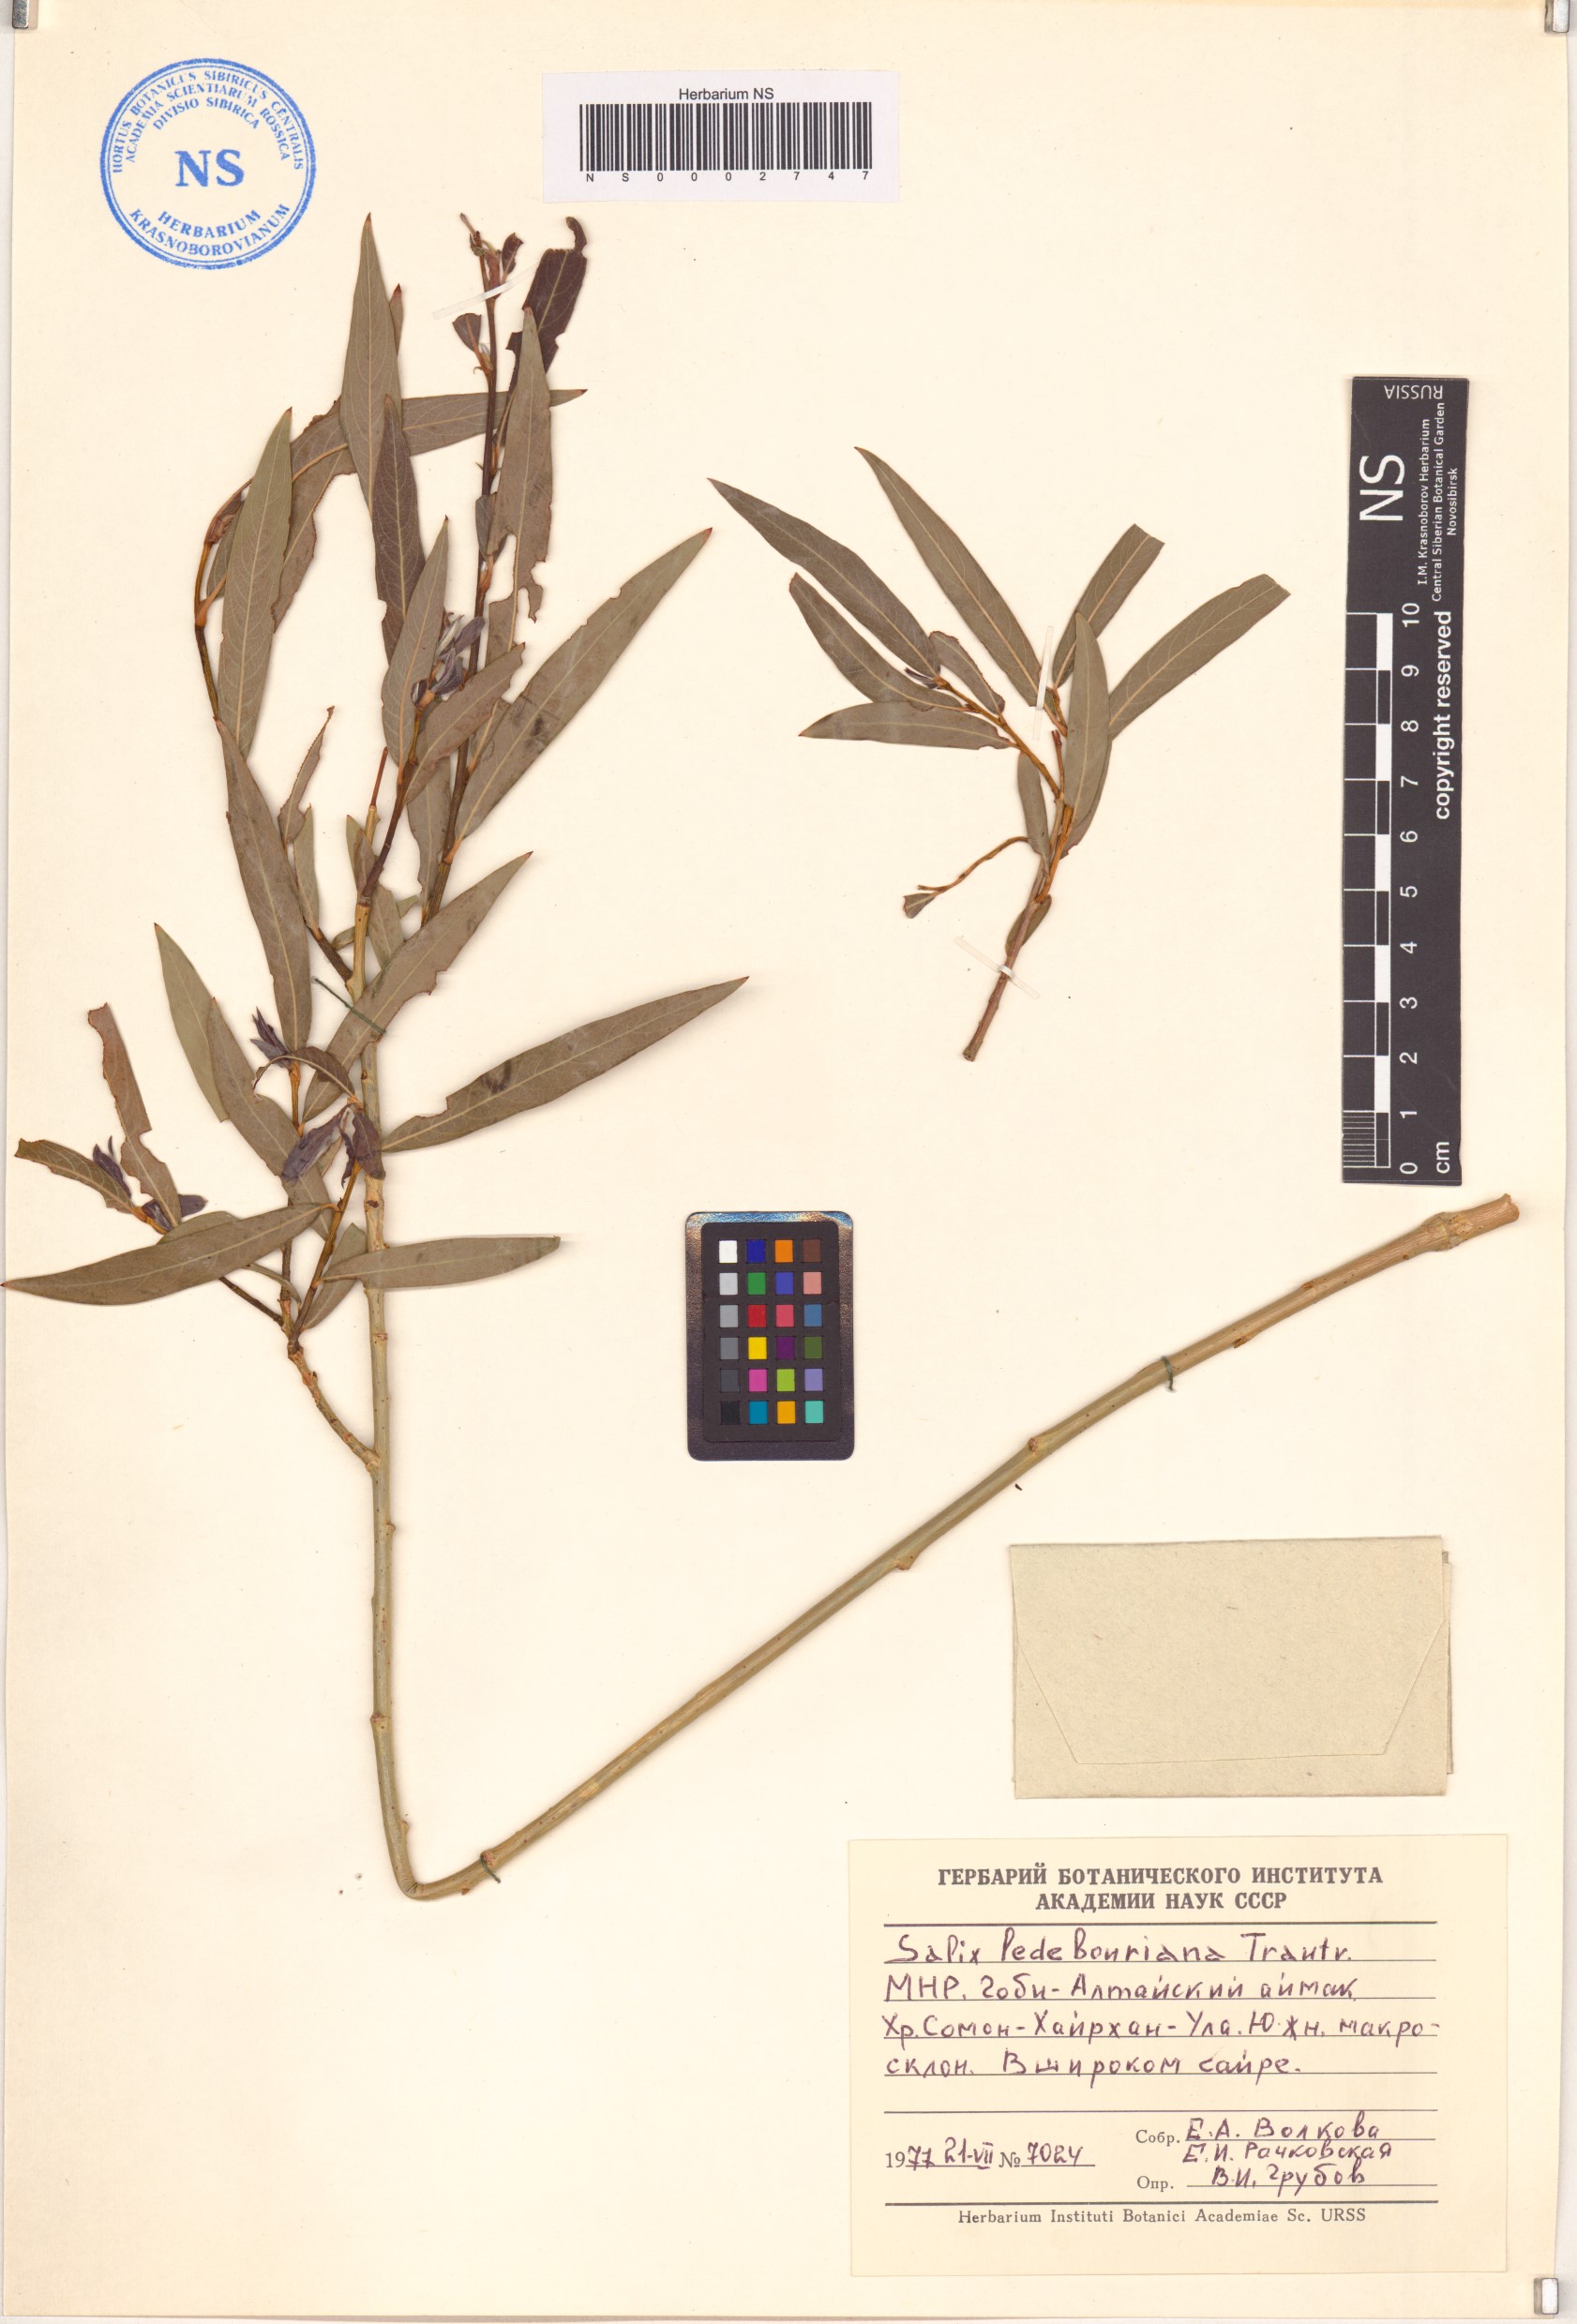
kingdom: Plantae
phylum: Tracheophyta
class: Magnoliopsida
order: Malpighiales
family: Salicaceae
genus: Salix
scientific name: Salix ledebouriana
